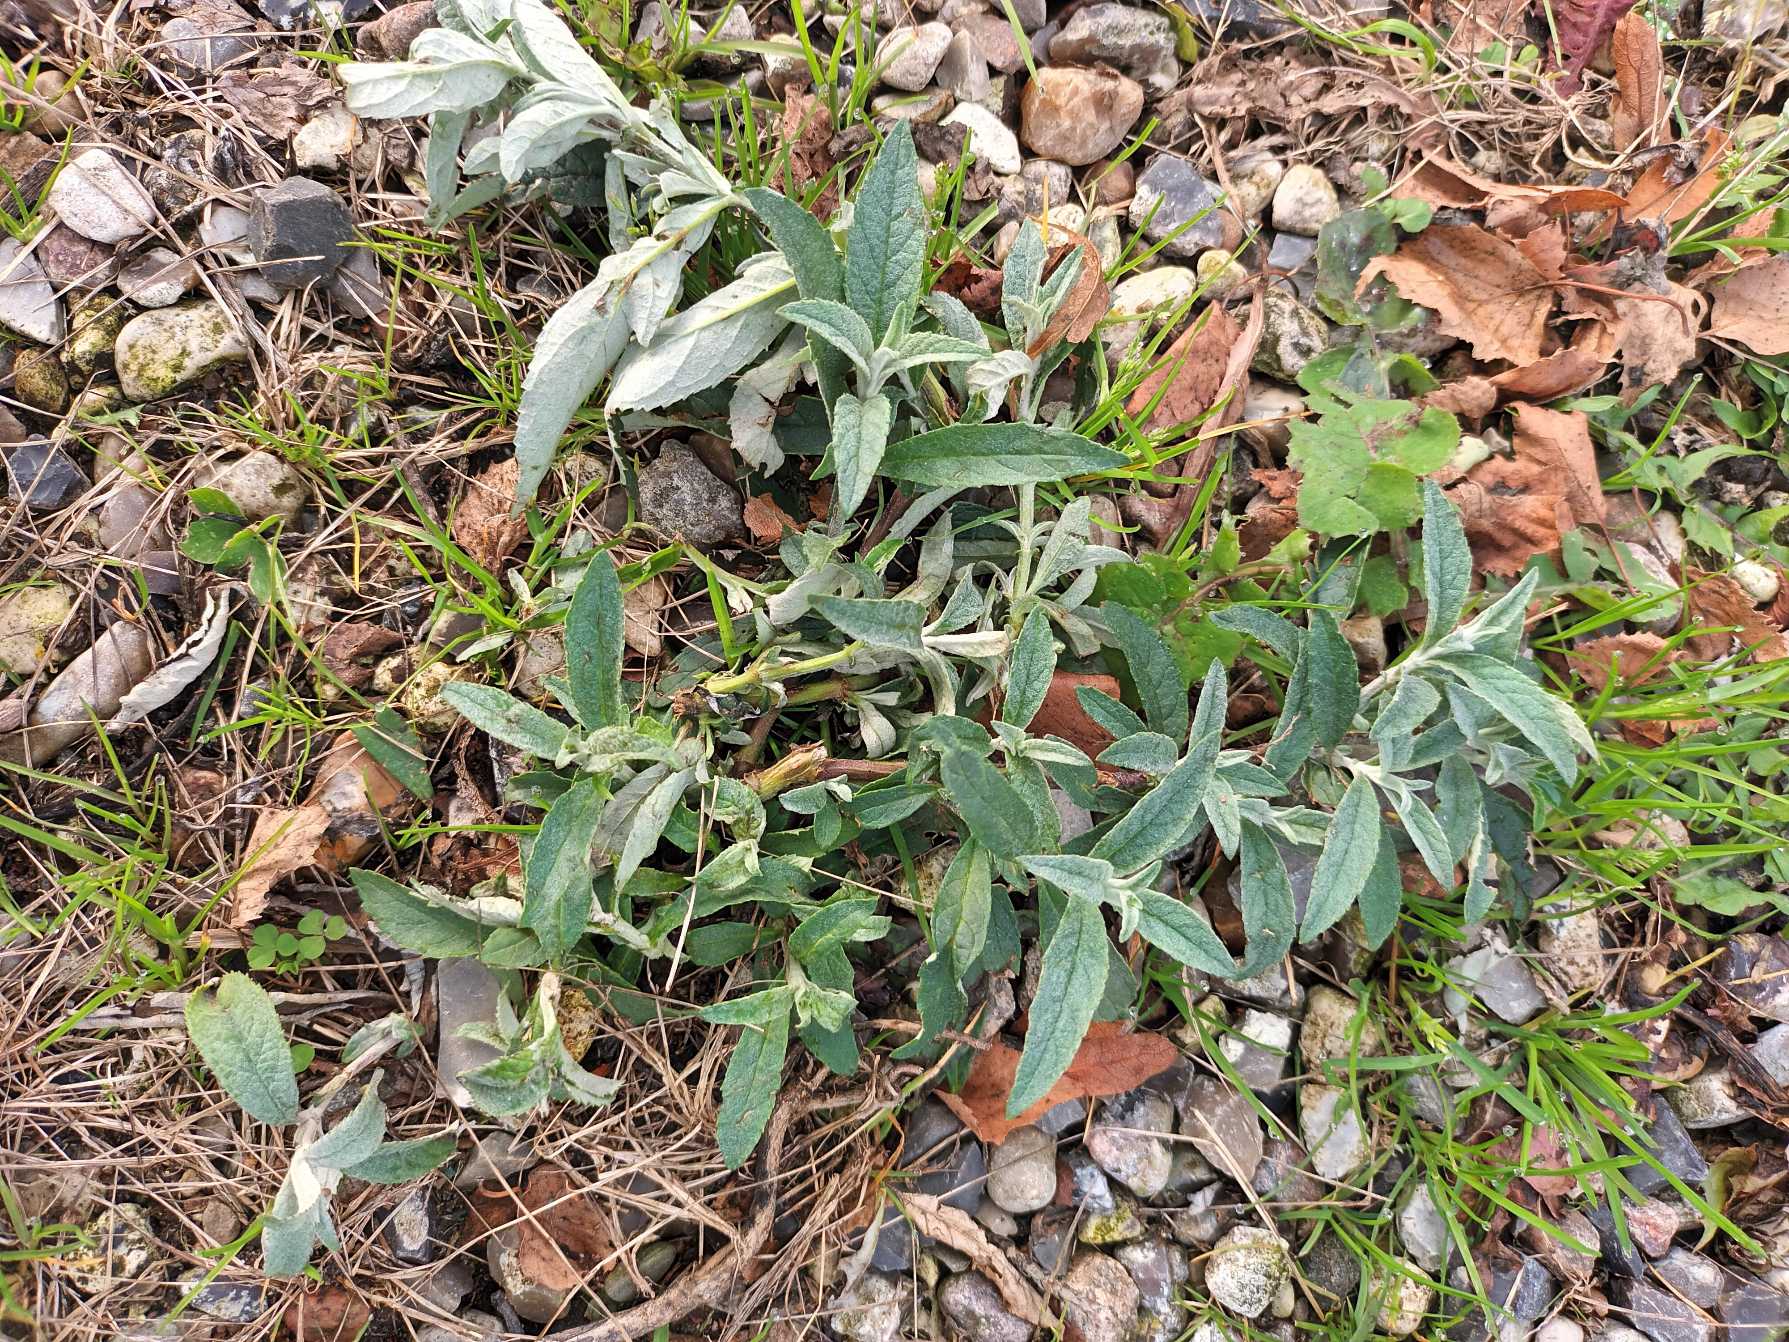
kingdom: Plantae
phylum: Tracheophyta
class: Magnoliopsida
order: Lamiales
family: Scrophulariaceae
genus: Buddleja
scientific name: Buddleja davidii
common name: Sommerfuglebusk
